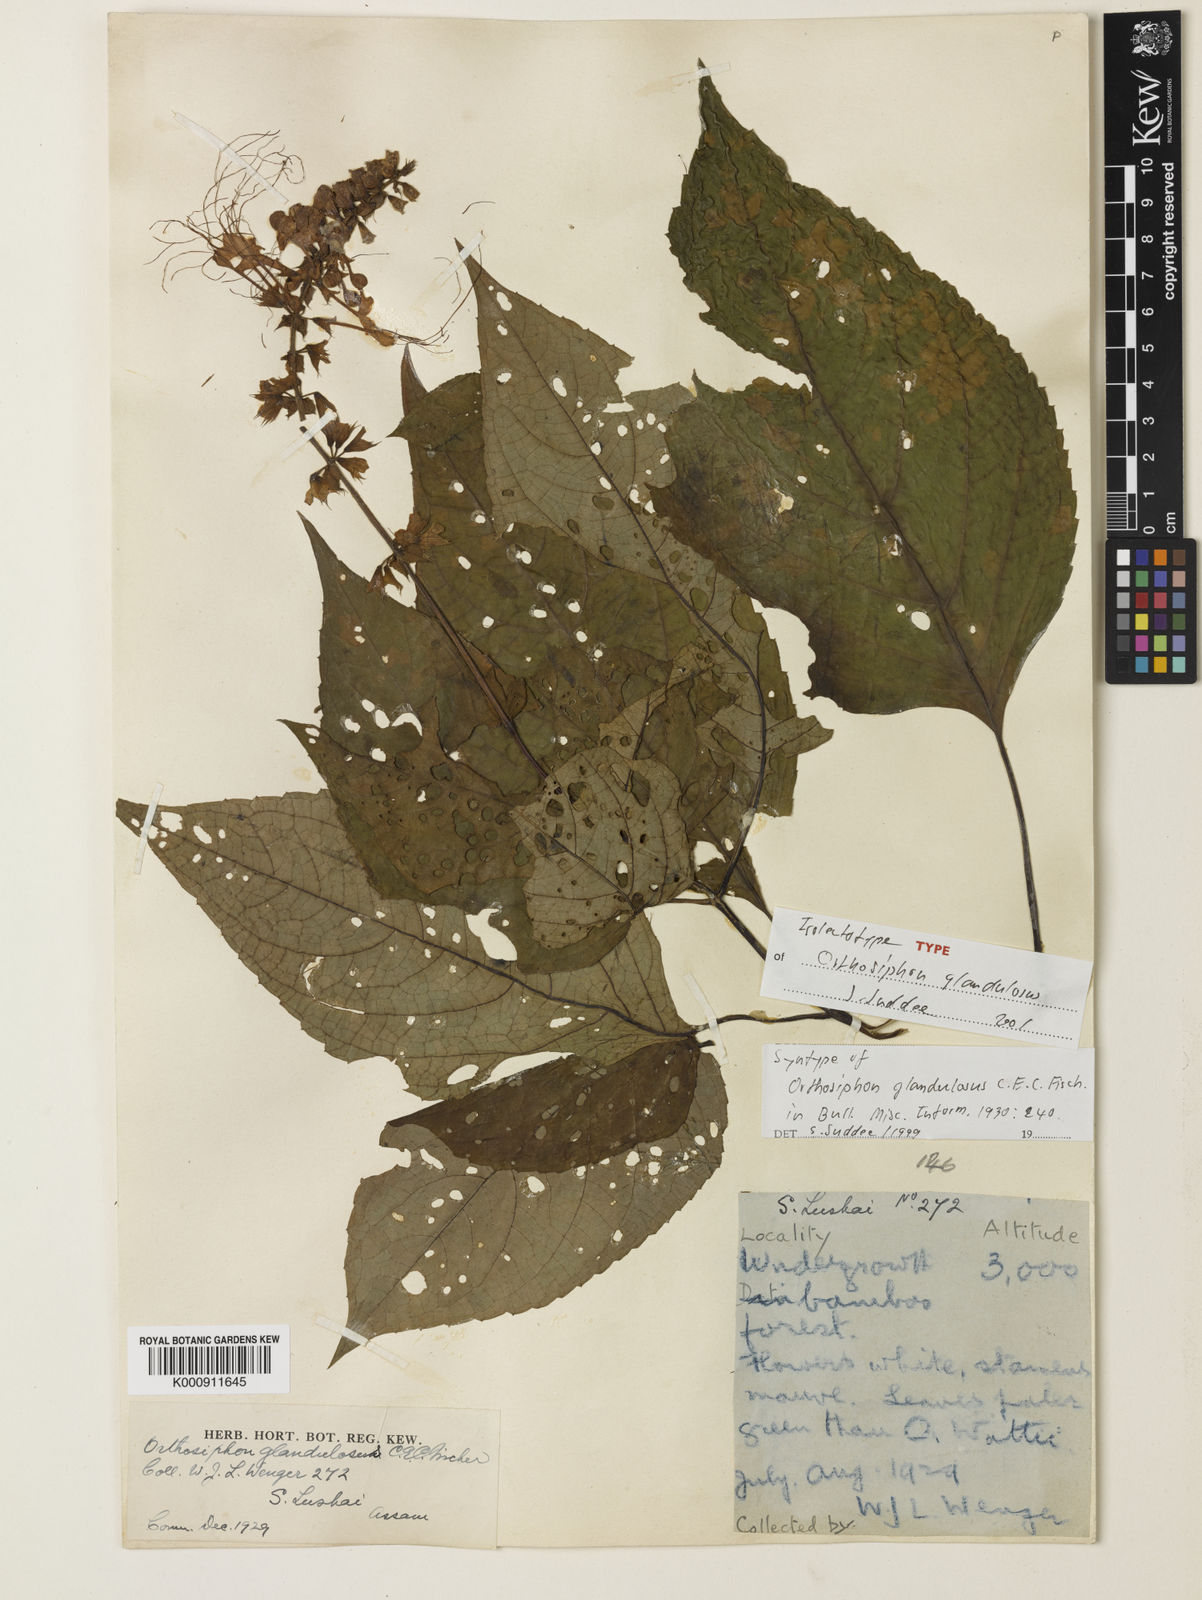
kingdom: Plantae
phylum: Tracheophyta
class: Magnoliopsida
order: Lamiales
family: Lamiaceae
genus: Orthosiphon
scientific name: Orthosiphon glandulosus
